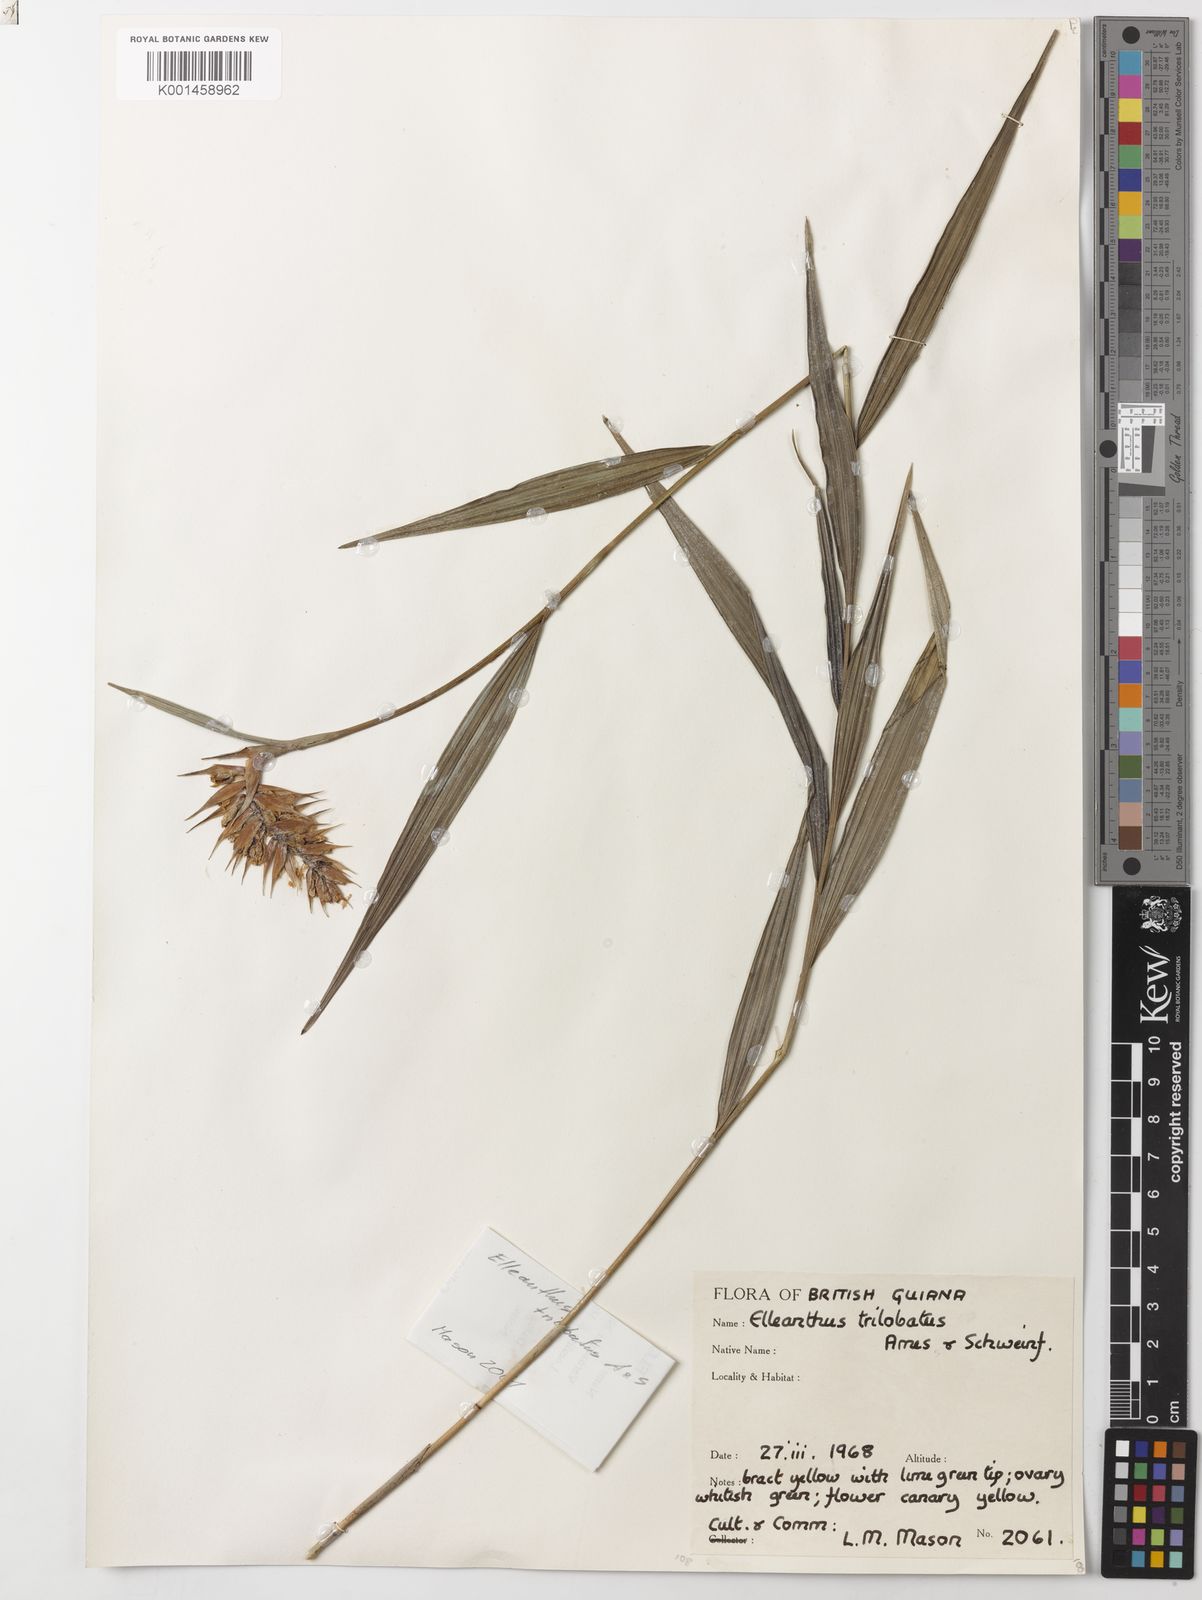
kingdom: Plantae
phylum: Tracheophyta
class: Liliopsida
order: Asparagales
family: Orchidaceae
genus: Elleanthus
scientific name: Elleanthus longibracteatus
